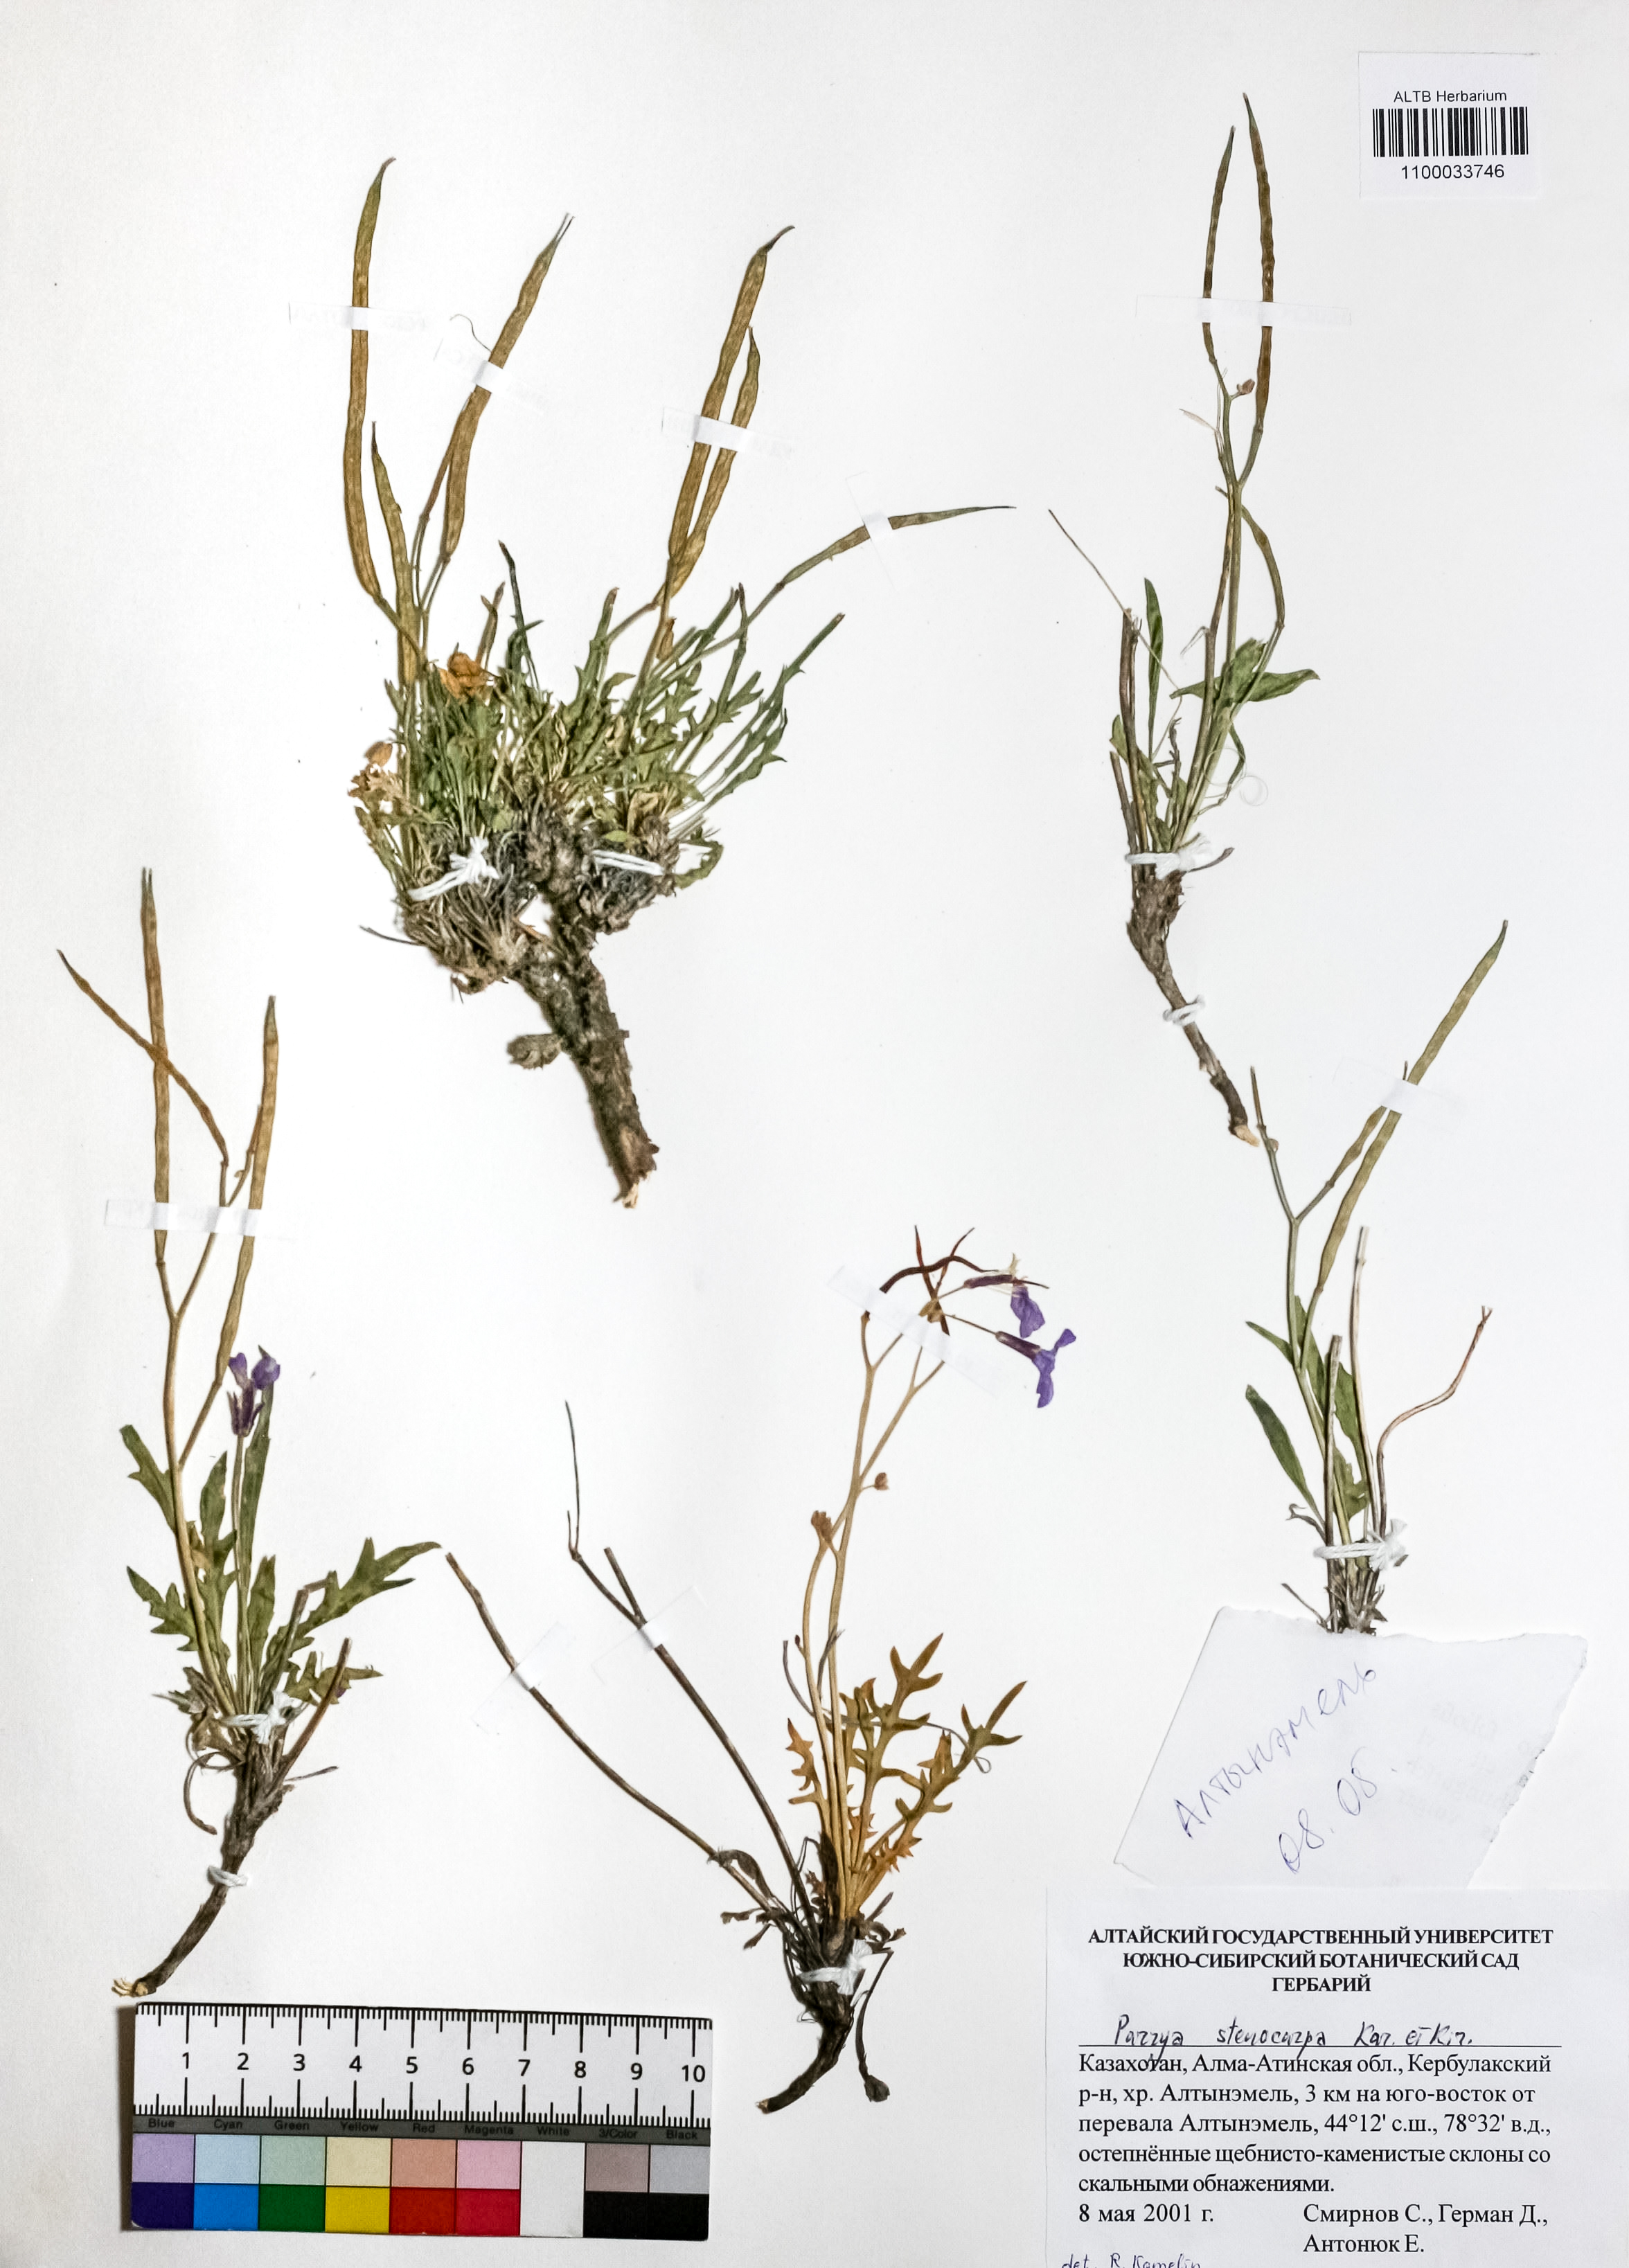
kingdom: Plantae
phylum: Tracheophyta
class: Magnoliopsida
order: Brassicales
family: Brassicaceae
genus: Parrya
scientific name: Parrya stenocarpa
